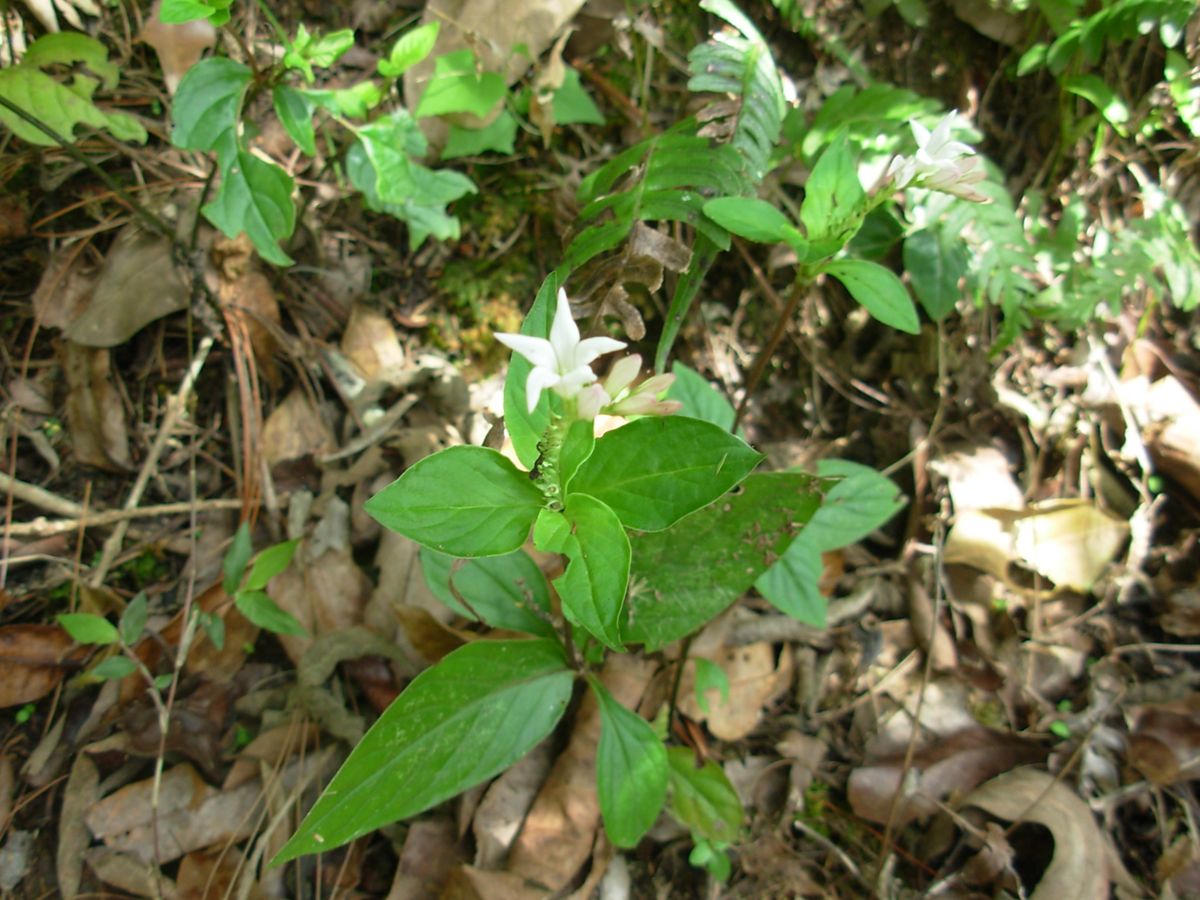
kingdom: Plantae
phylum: Tracheophyta
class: Magnoliopsida
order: Gentianales
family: Loganiaceae
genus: Spigelia
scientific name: Spigelia humboldtiana
